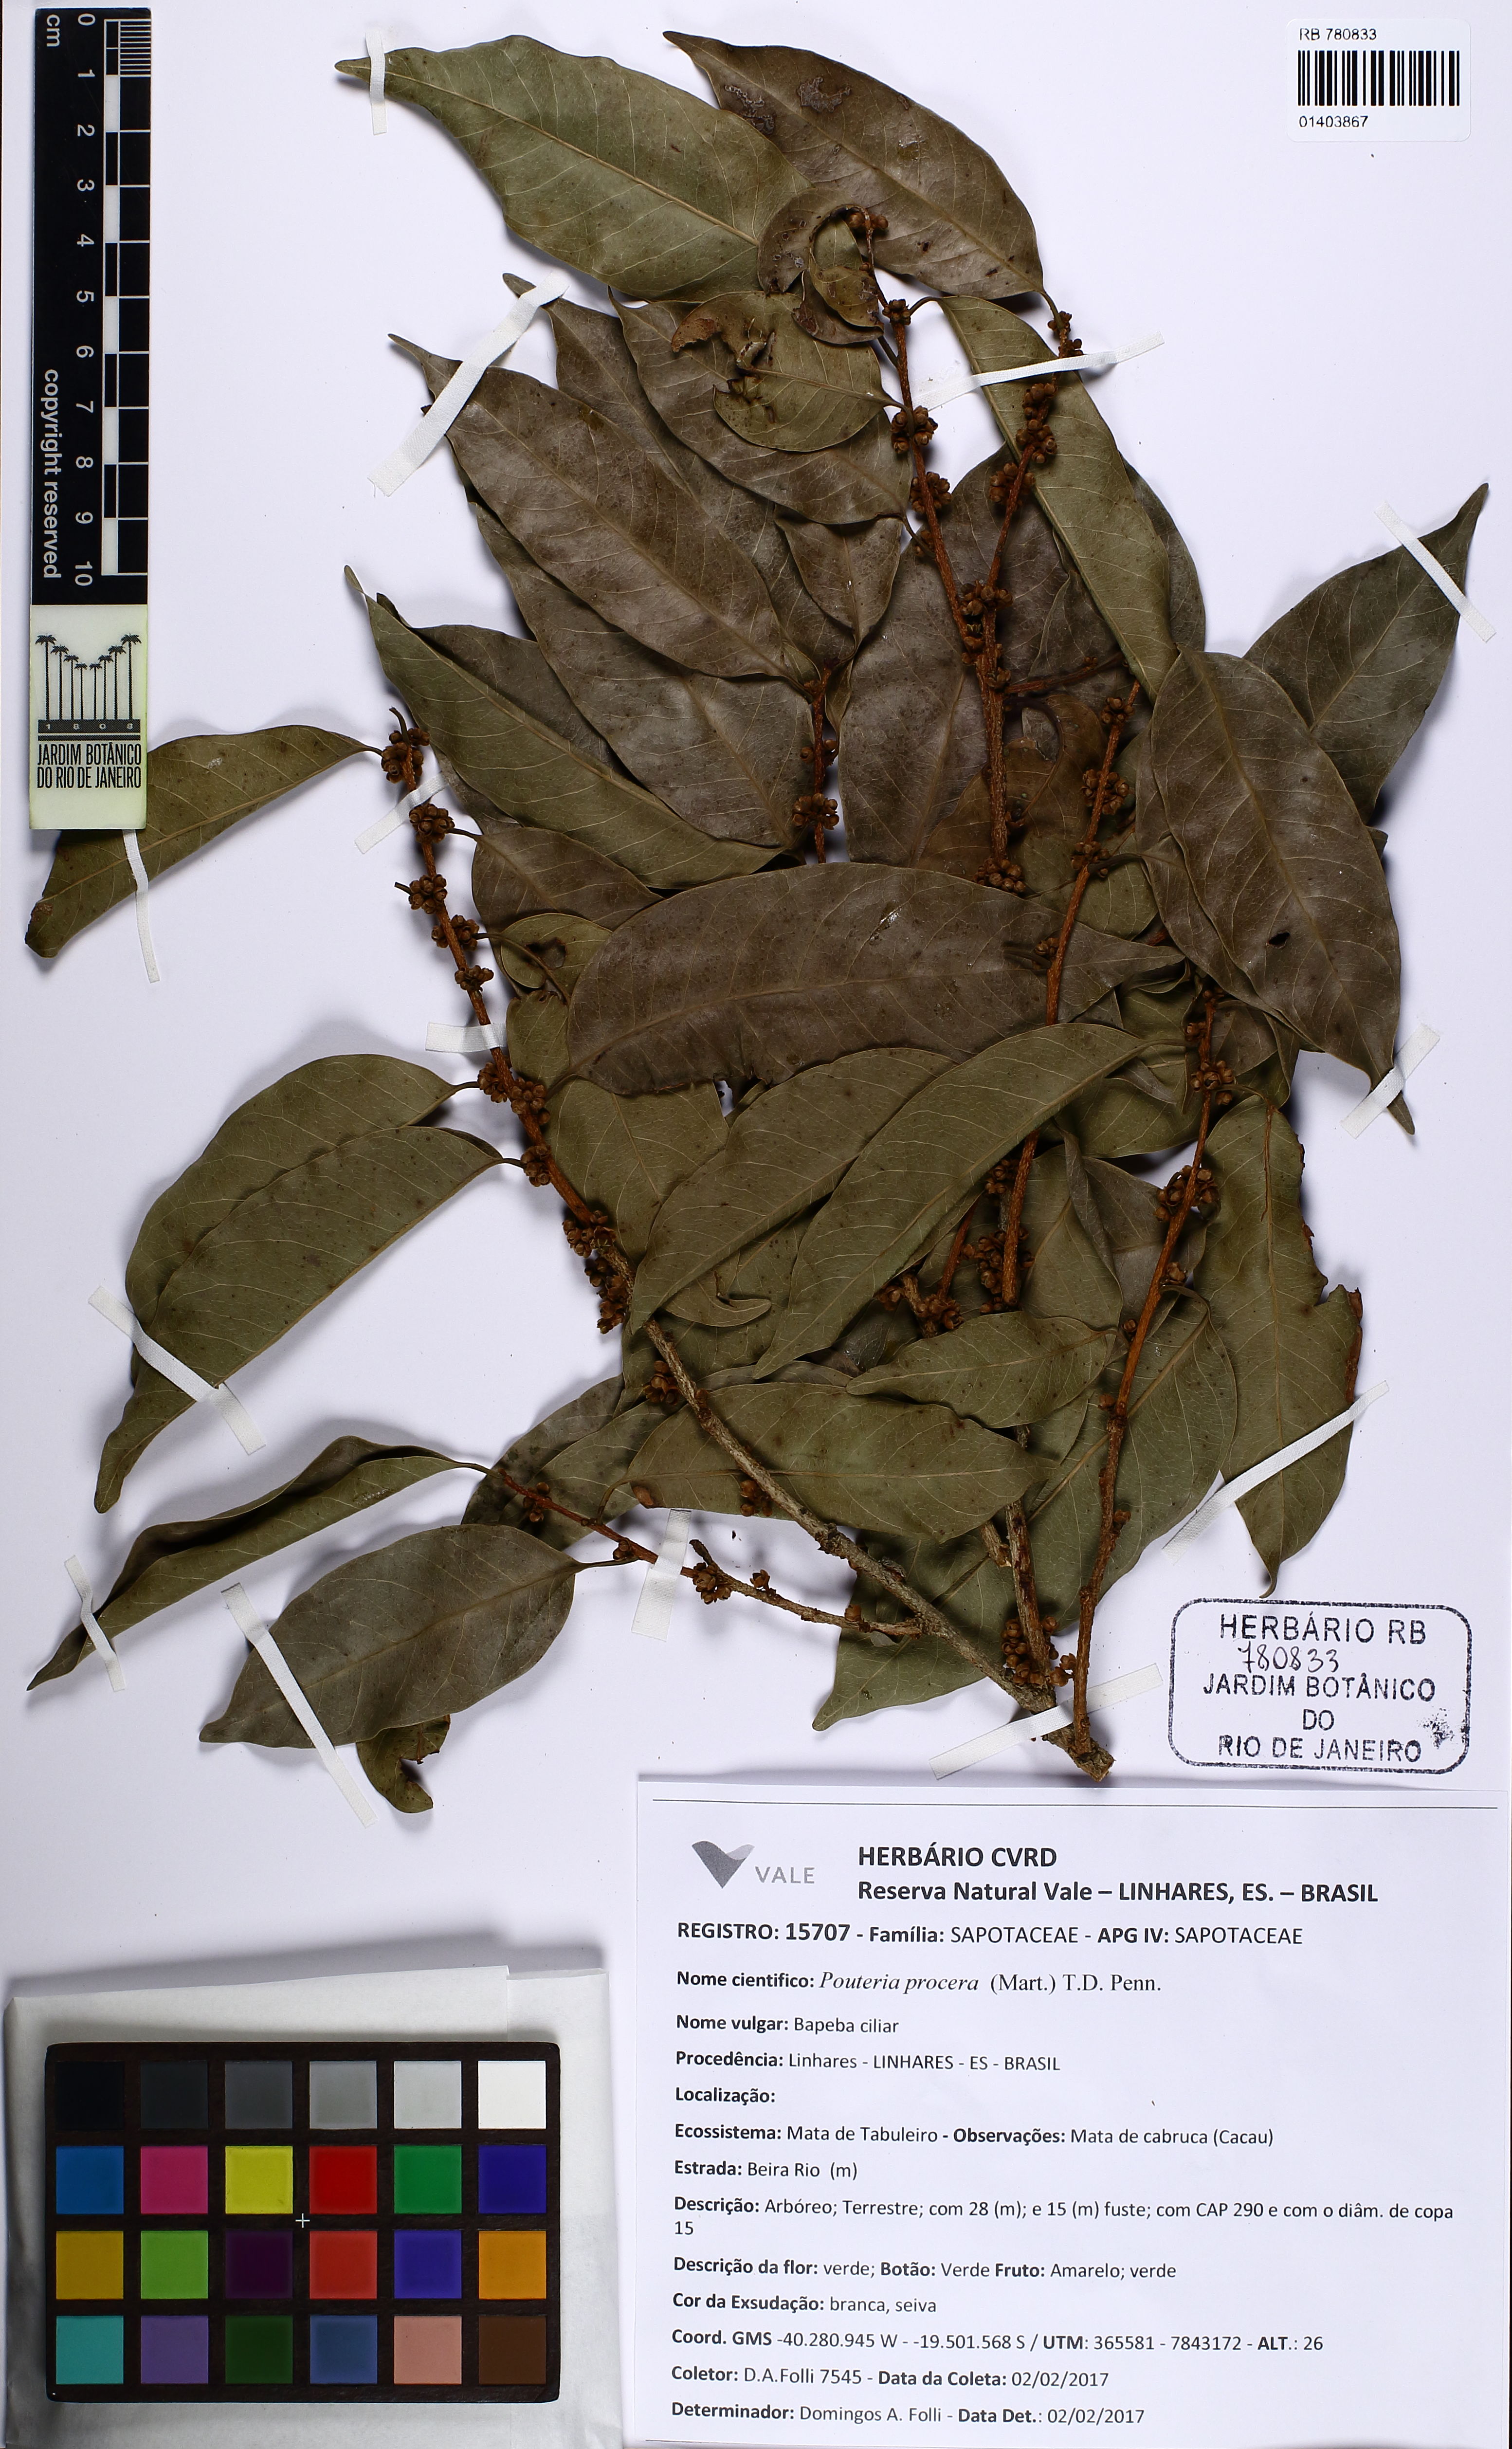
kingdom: Plantae
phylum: Tracheophyta
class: Magnoliopsida
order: Ericales
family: Sapotaceae
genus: Pouteria
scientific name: Pouteria procera
